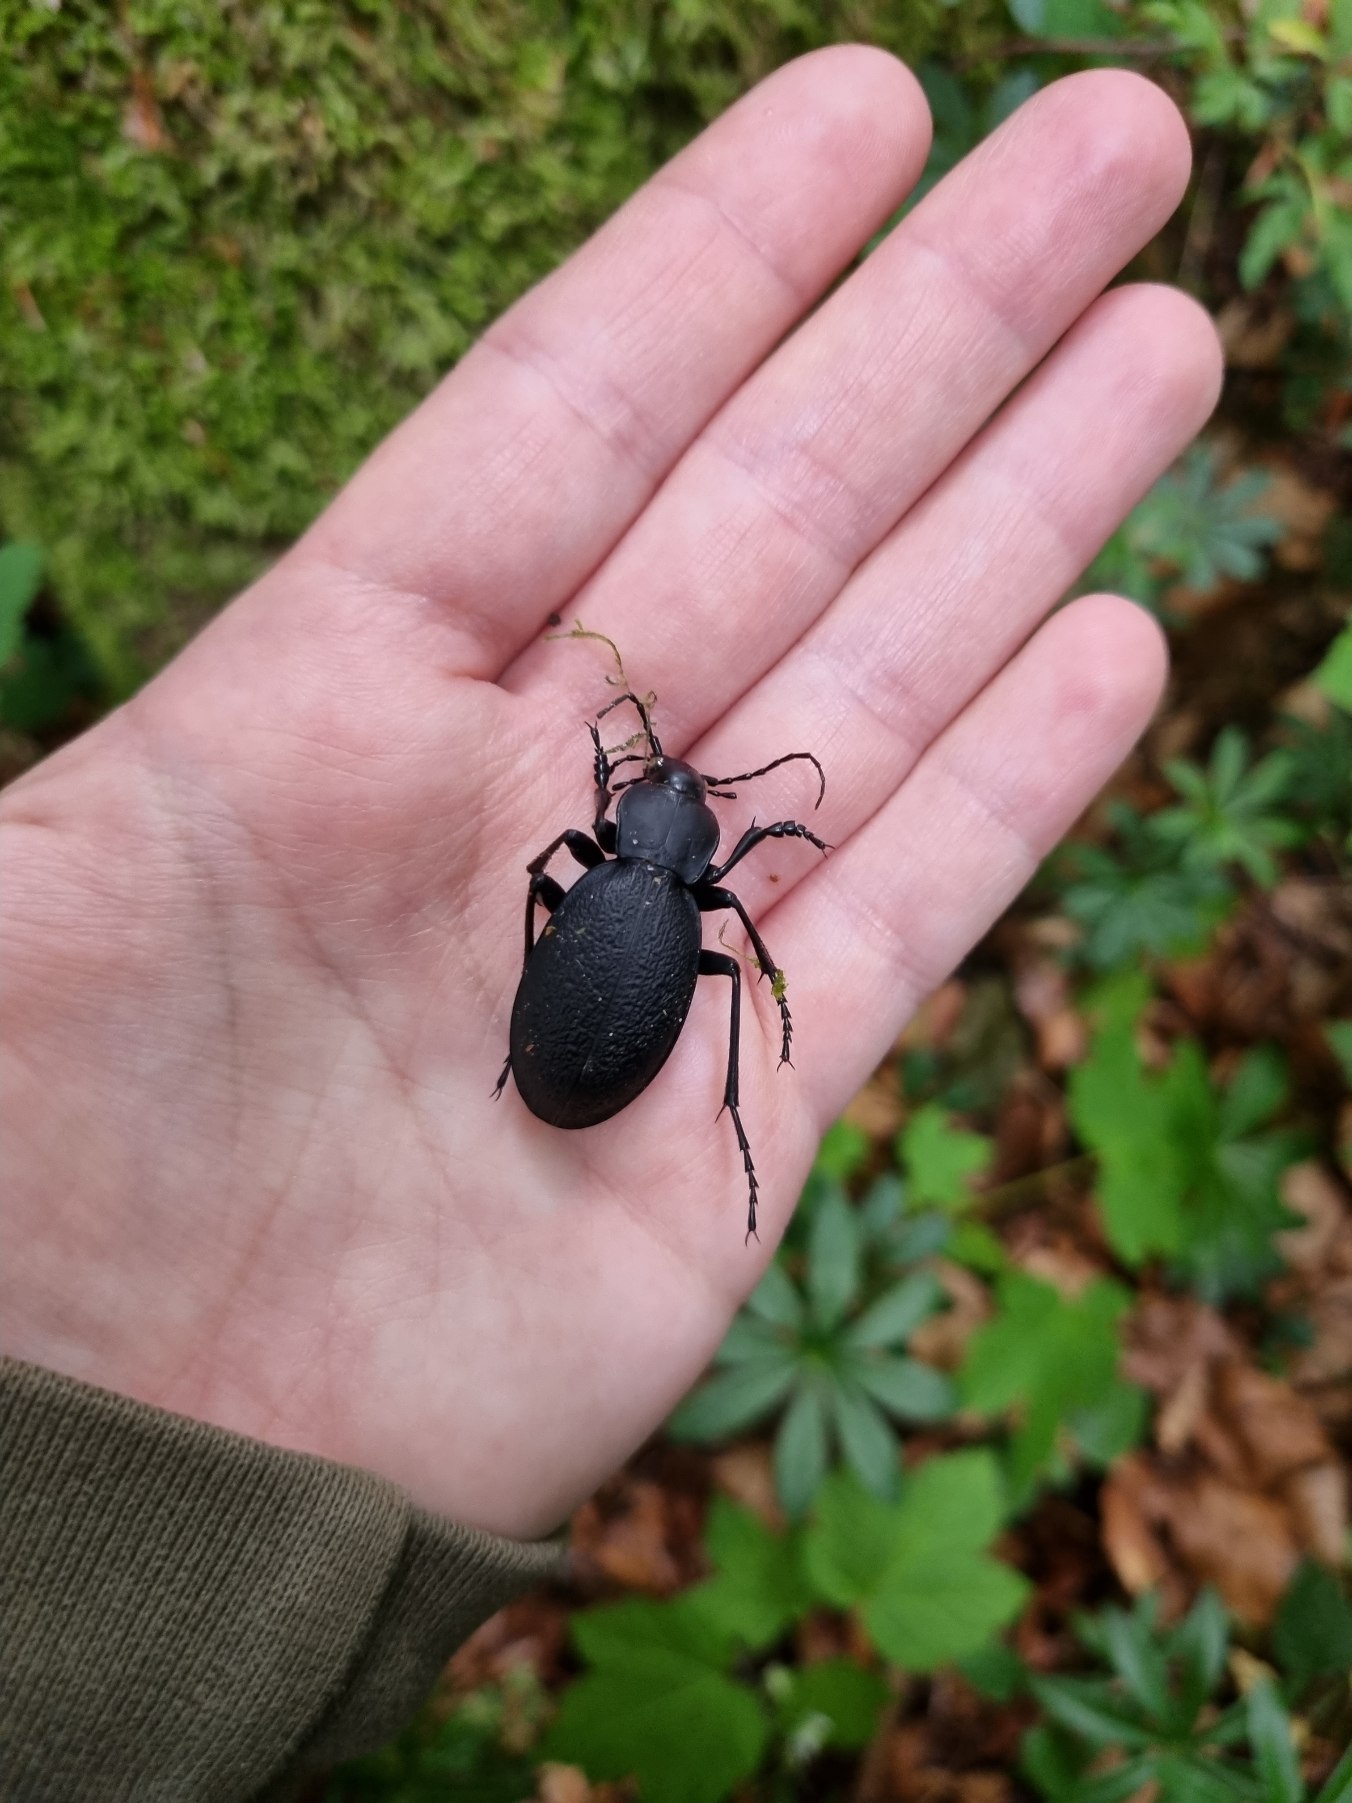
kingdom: Animalia
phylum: Arthropoda
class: Insecta
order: Coleoptera
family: Carabidae
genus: Carabus
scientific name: Carabus coriaceus
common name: Læderløber
